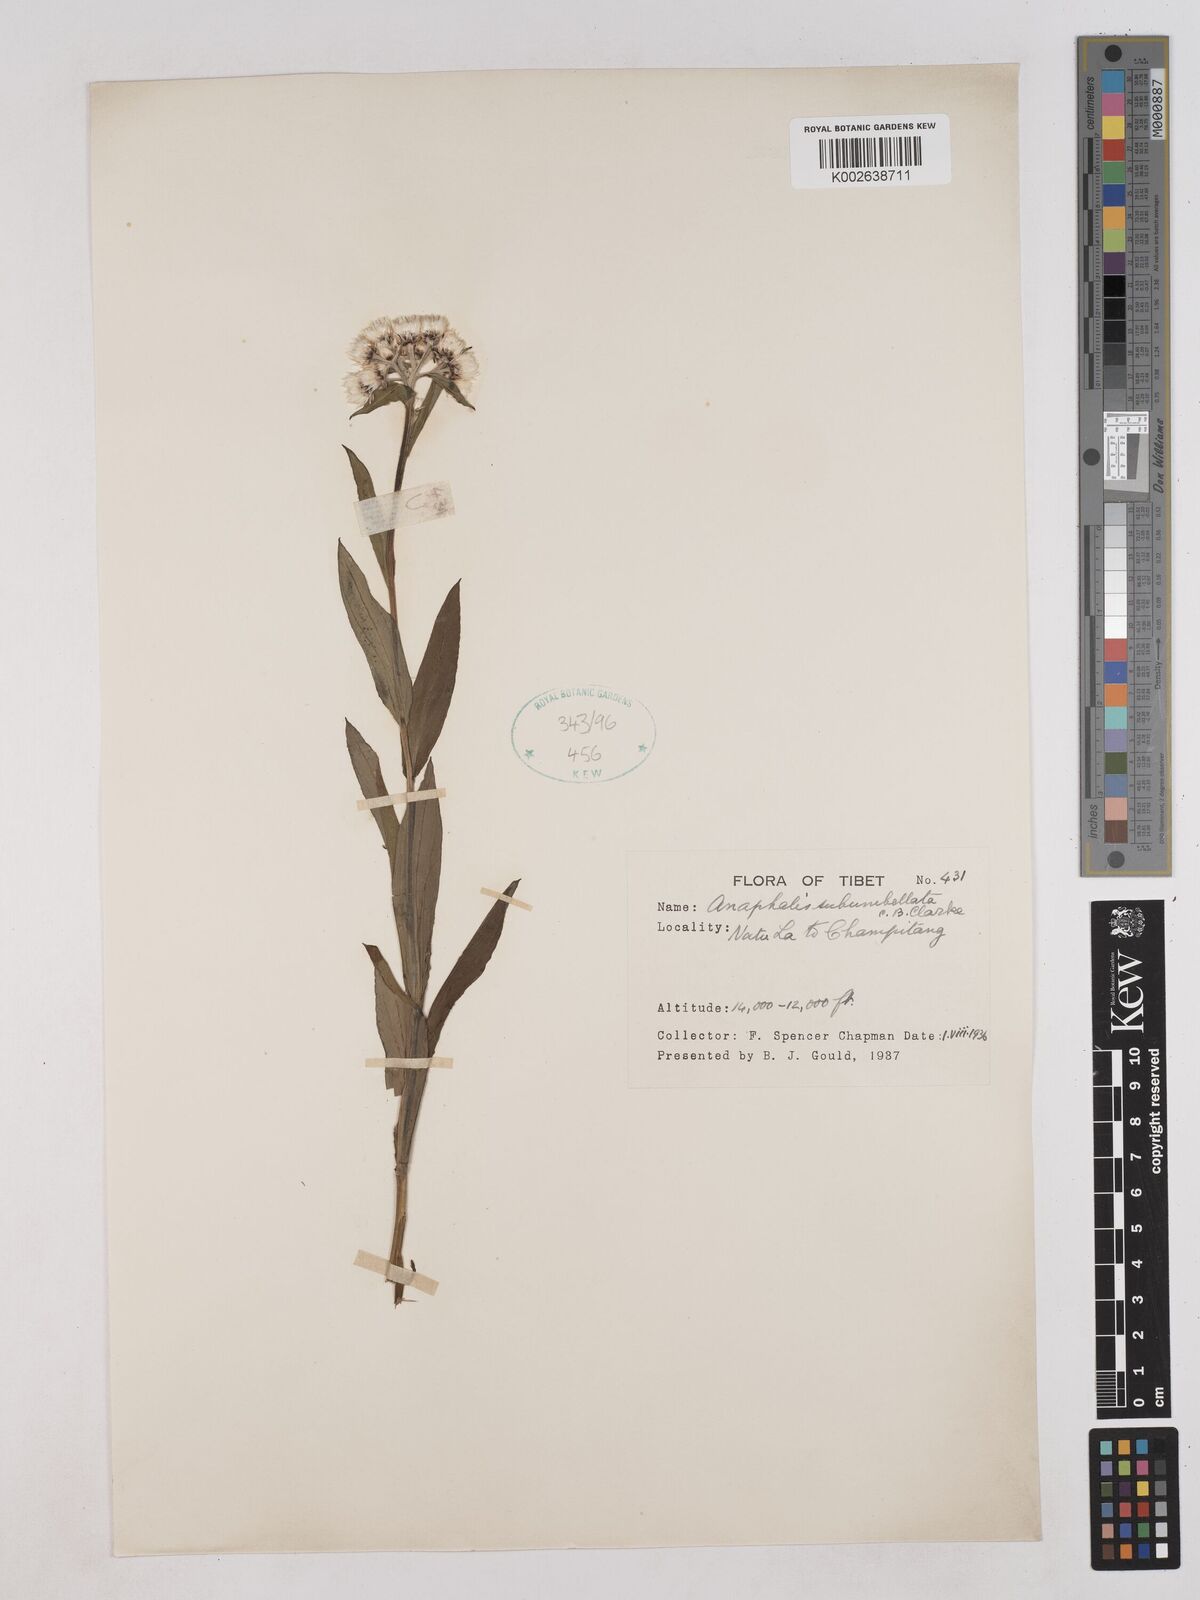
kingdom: Plantae
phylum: Tracheophyta
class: Magnoliopsida
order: Asterales
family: Asteraceae
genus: Anaphalis
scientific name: Anaphalis subumbellata
